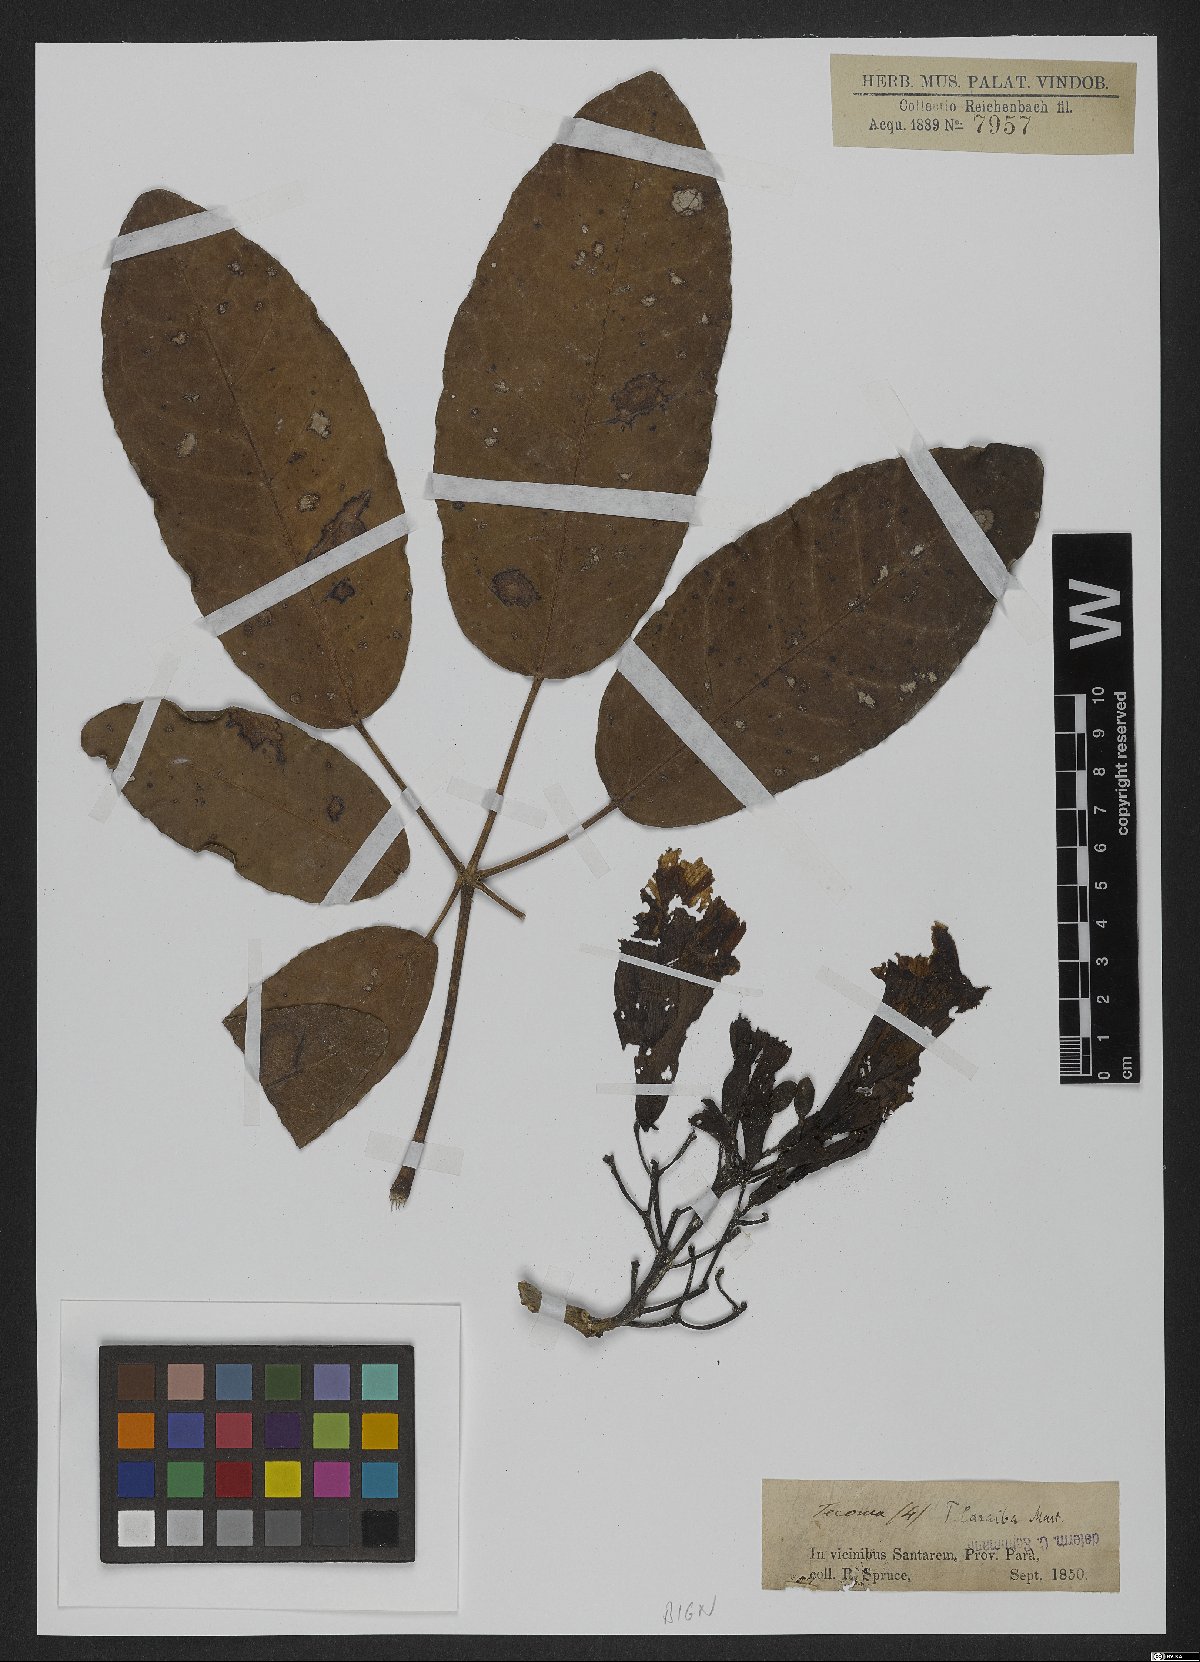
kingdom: Plantae
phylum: Tracheophyta
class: Magnoliopsida
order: Lamiales
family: Bignoniaceae
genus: Tabebuia
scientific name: Tabebuia aurea
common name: Caribbean trumpet-tree
